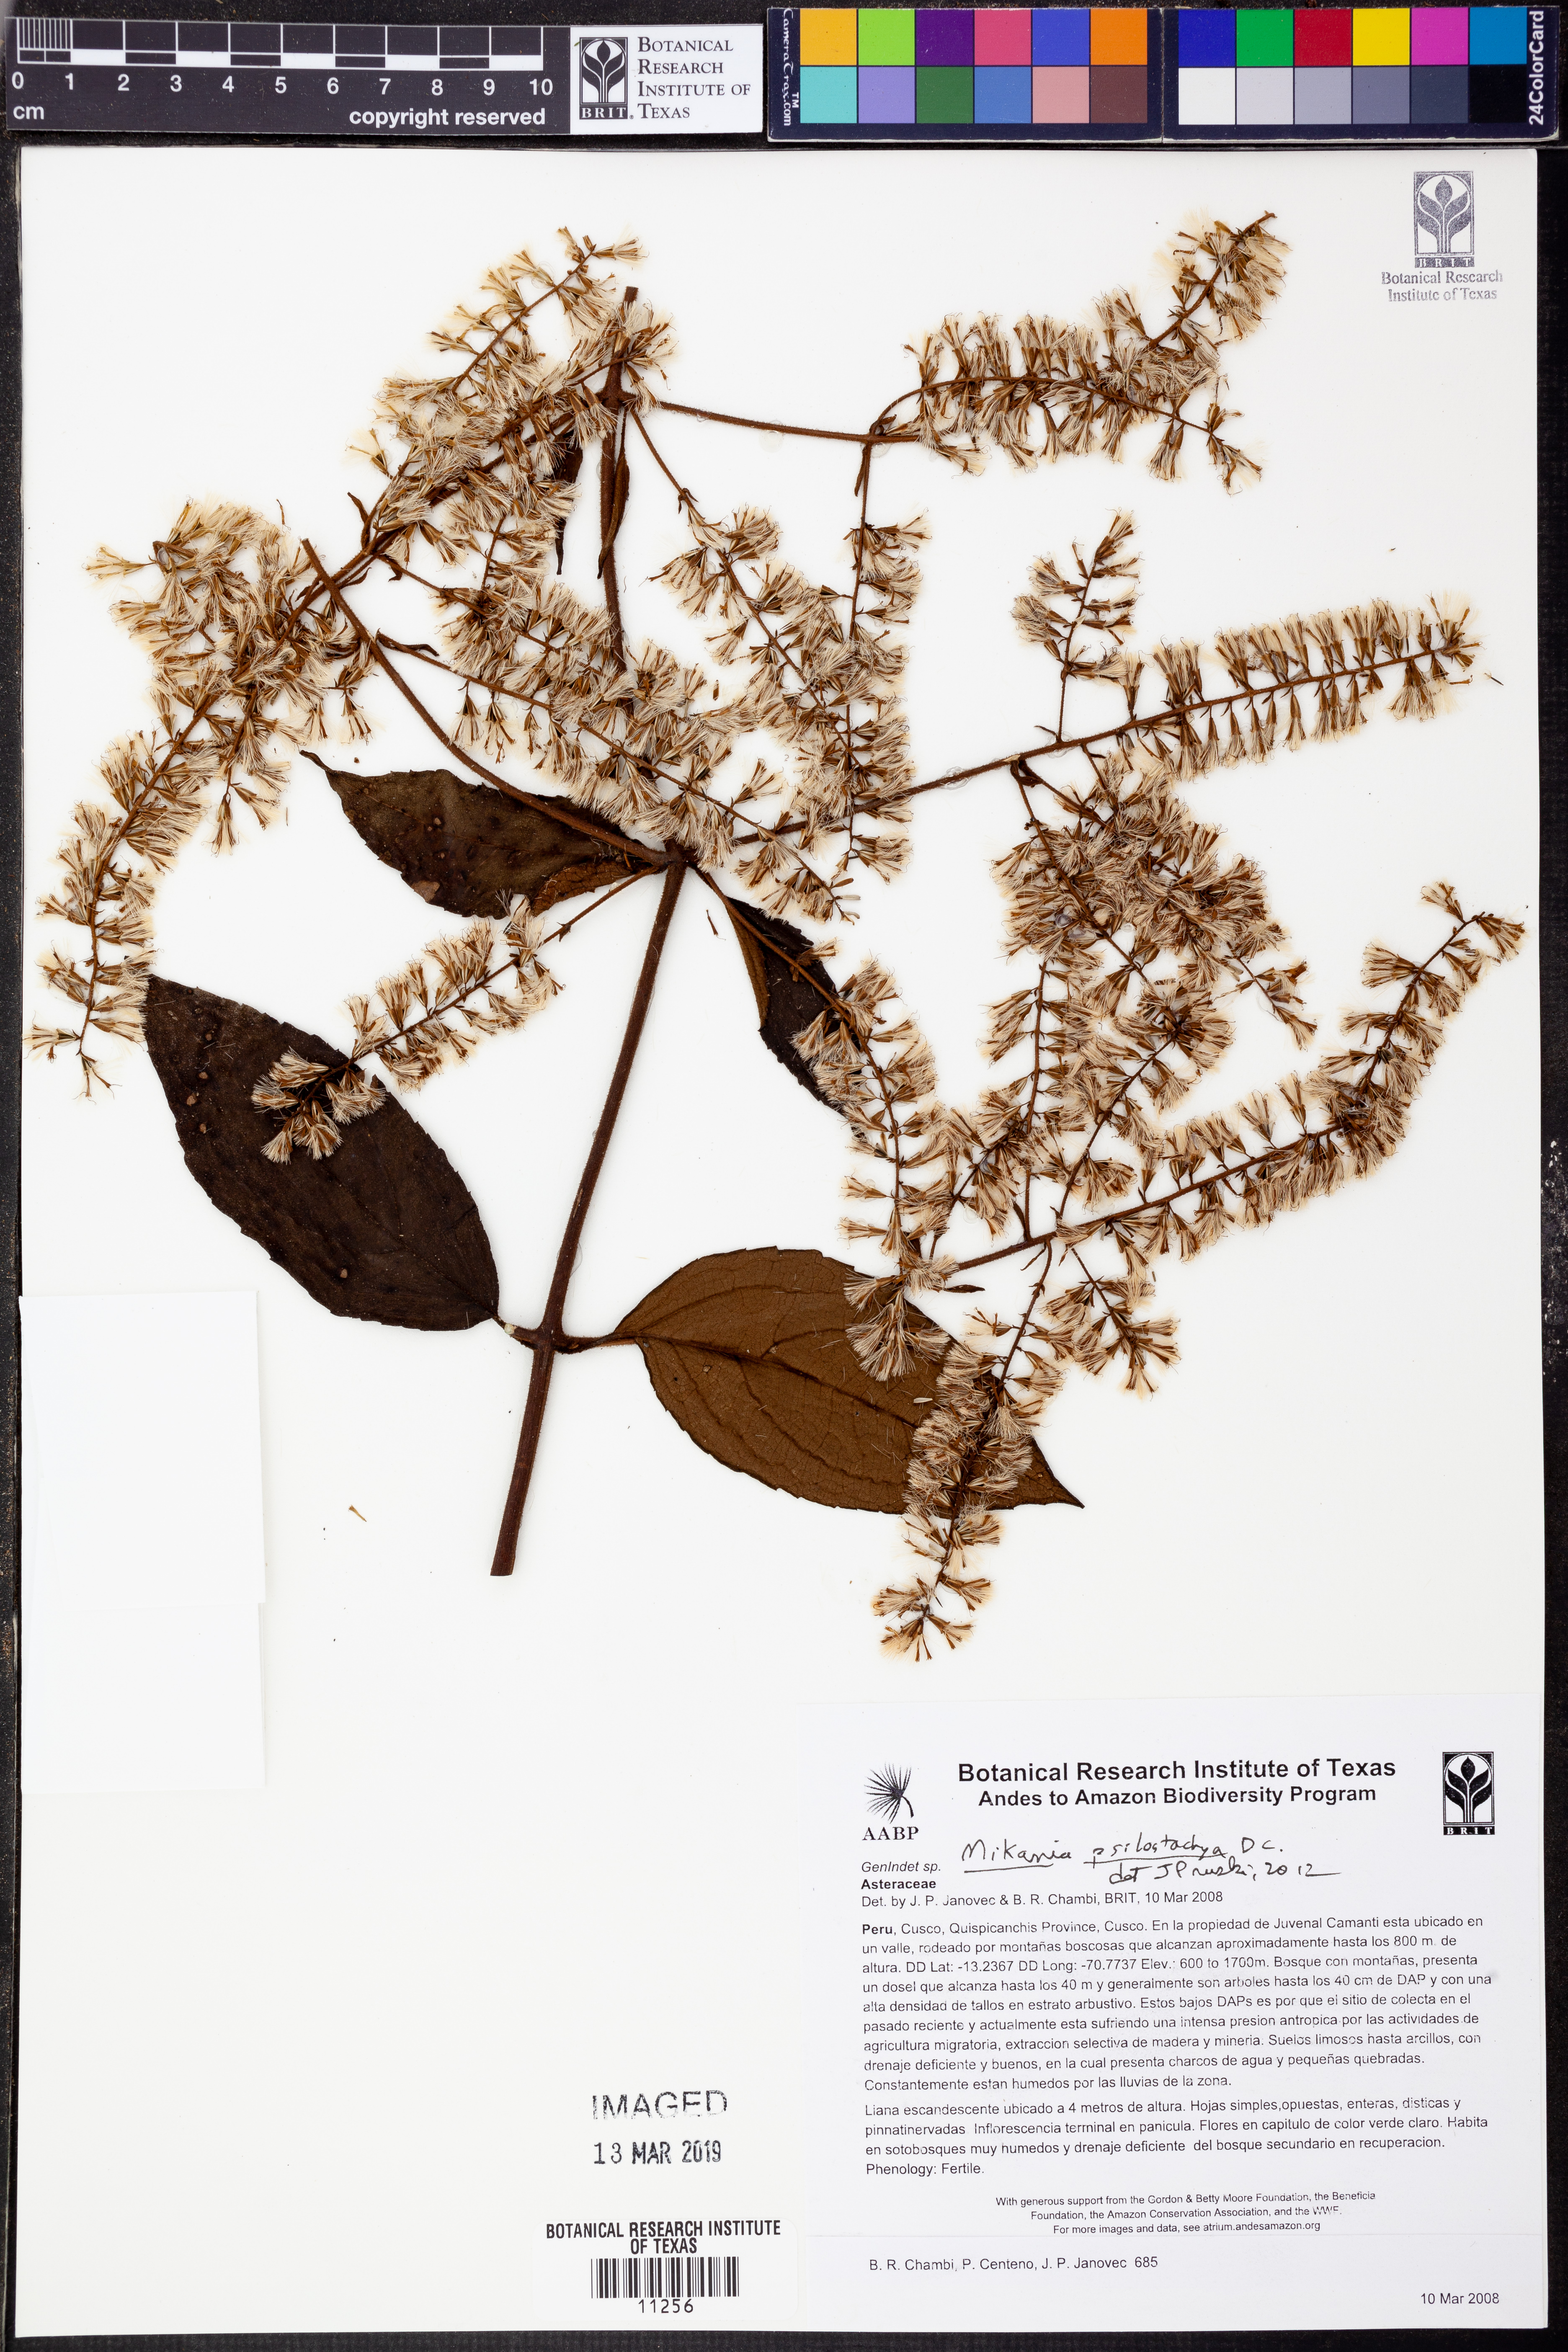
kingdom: Plantae
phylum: Tracheophyta
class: Magnoliopsida
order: Asterales
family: Asteraceae
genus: Mikania
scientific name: Mikania psilostachya
